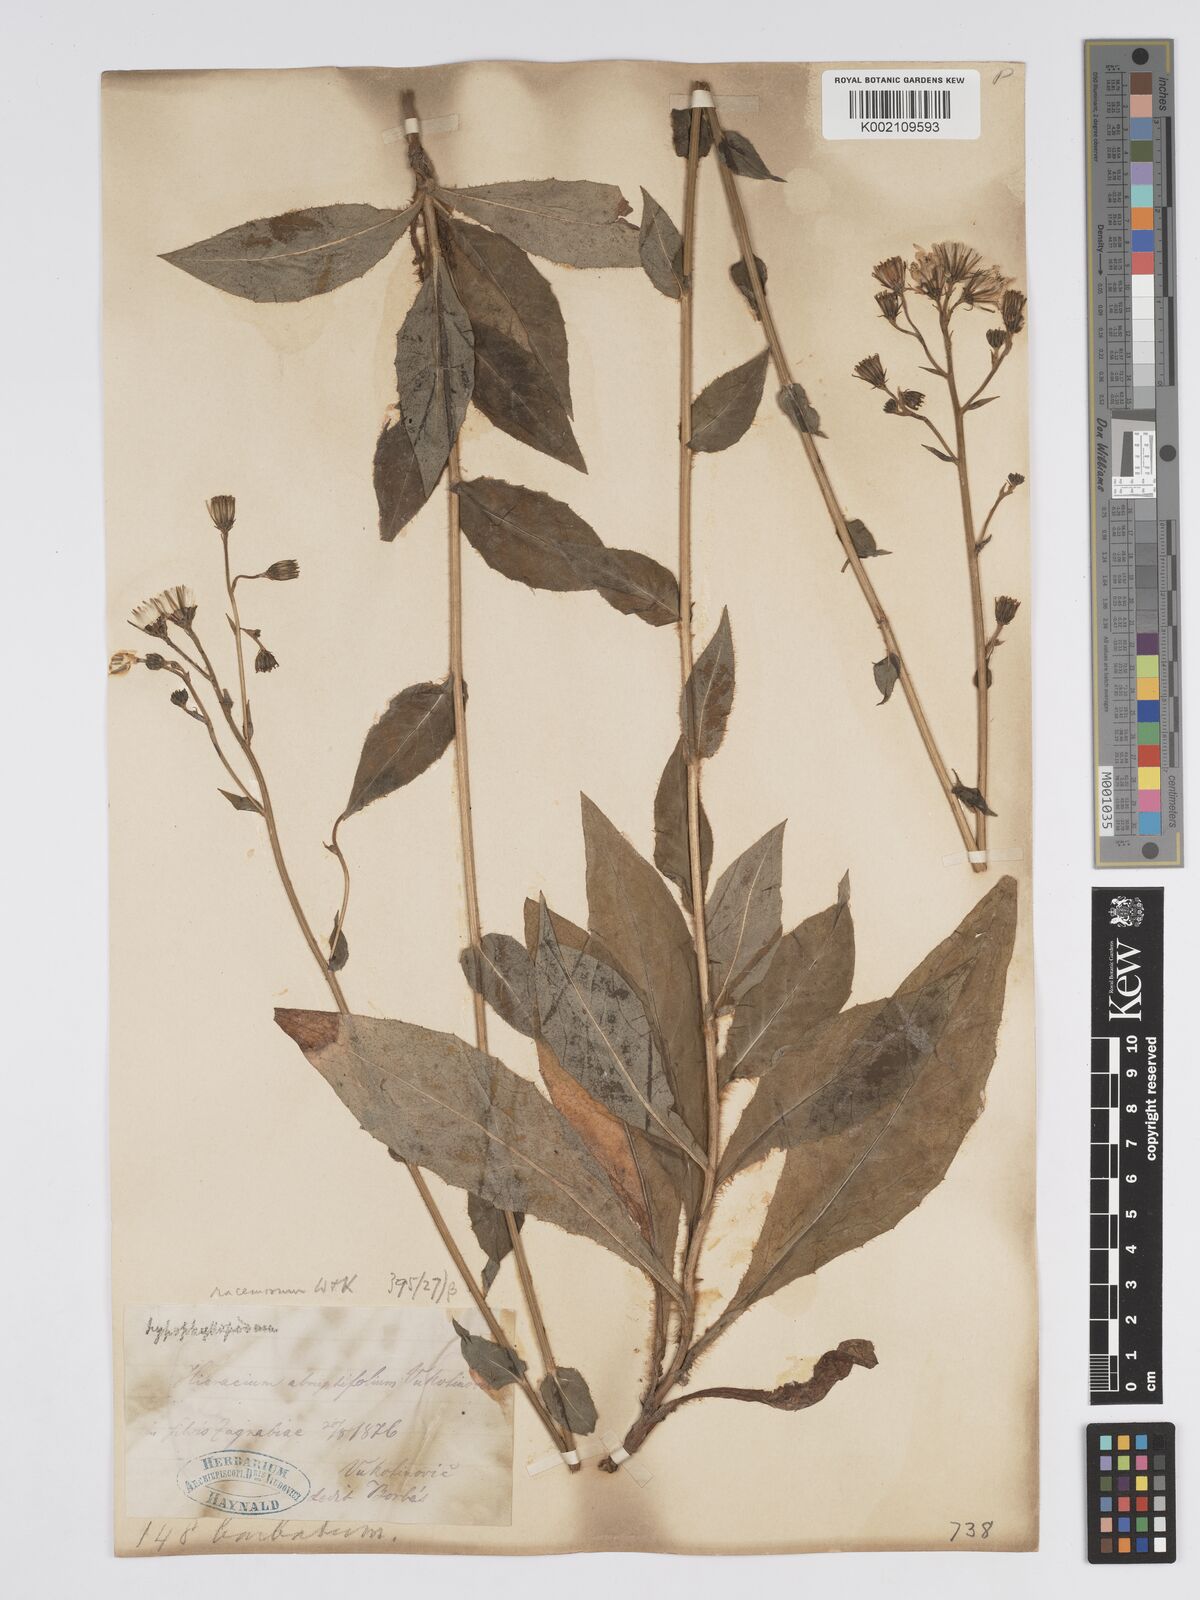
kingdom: Plantae
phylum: Tracheophyta
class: Magnoliopsida
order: Asterales
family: Asteraceae
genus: Hieracium
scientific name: Hieracium racemosum
